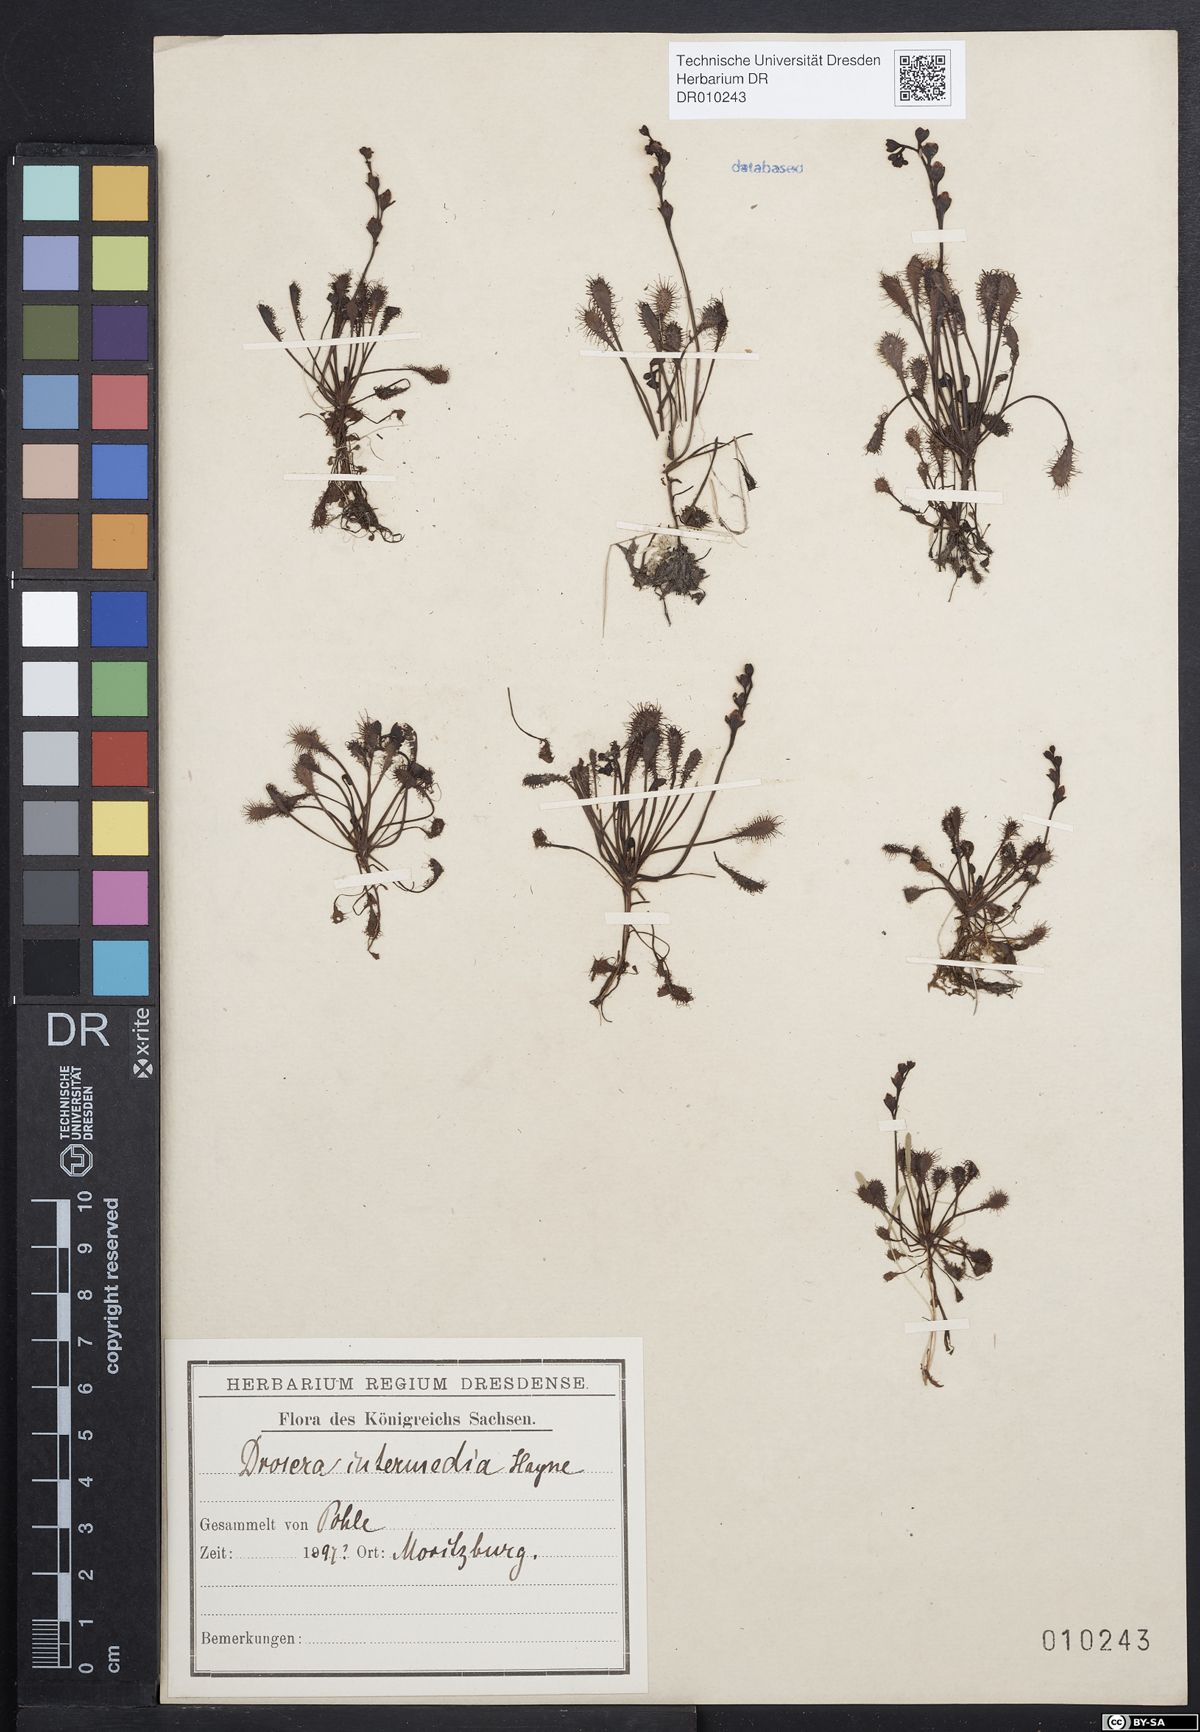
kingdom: Plantae
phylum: Tracheophyta
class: Magnoliopsida
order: Caryophyllales
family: Droseraceae
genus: Drosera
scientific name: Drosera intermedia
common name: Oblong-leaved sundew
